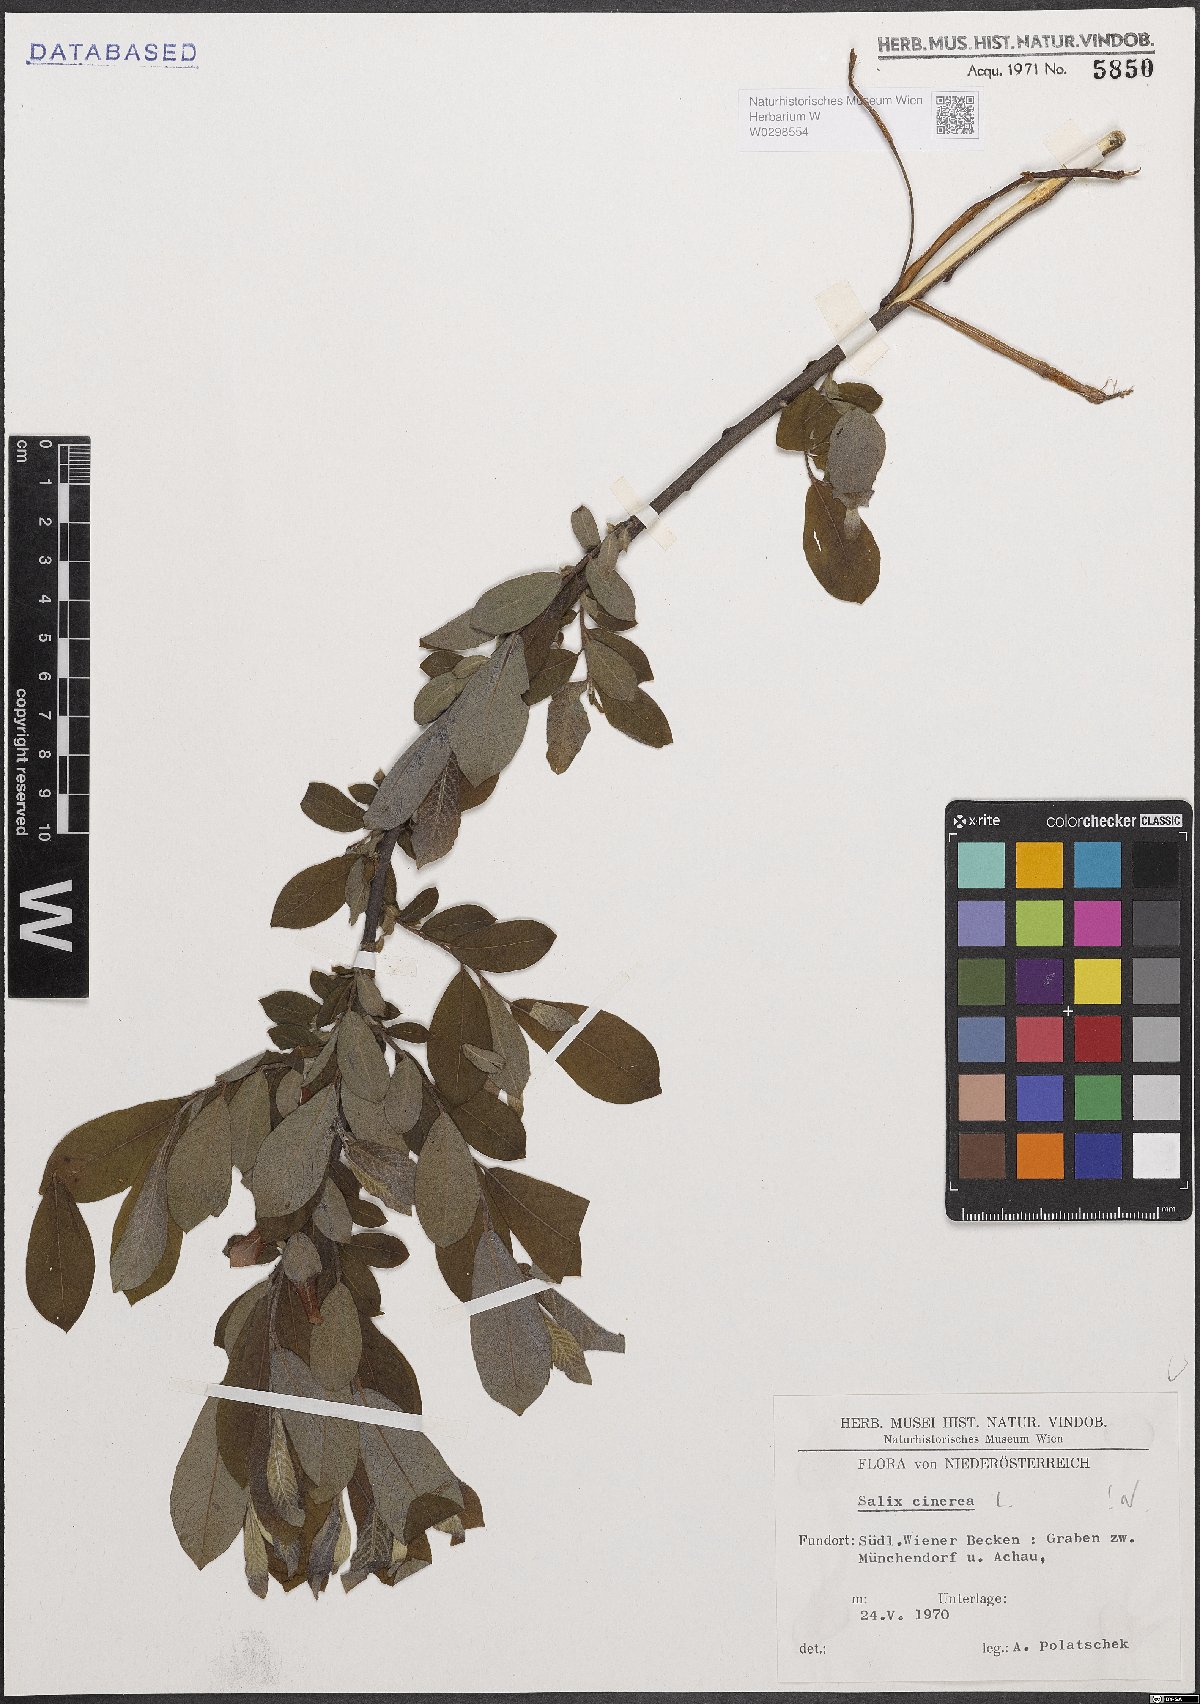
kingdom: Plantae
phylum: Tracheophyta
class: Magnoliopsida
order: Malpighiales
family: Salicaceae
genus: Salix
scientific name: Salix cinerea
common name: Common sallow
